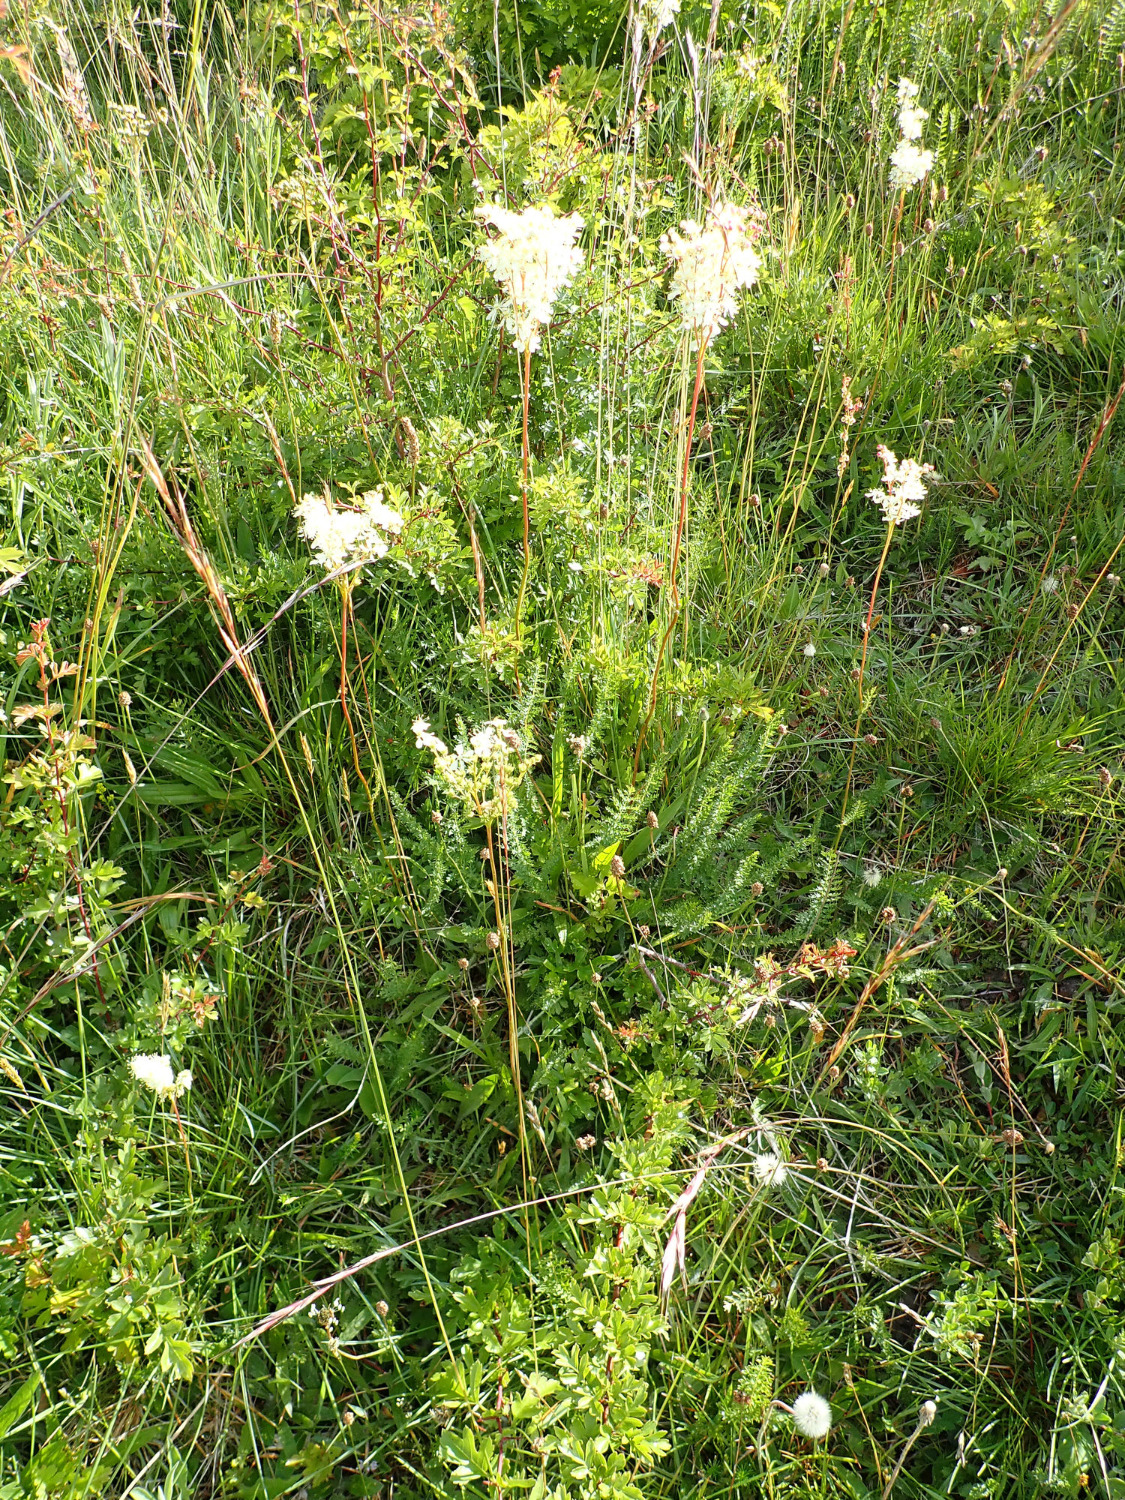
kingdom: Plantae
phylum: Tracheophyta
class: Magnoliopsida
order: Rosales
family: Rosaceae
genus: Filipendula
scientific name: Filipendula vulgaris
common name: Knoldet mjødurt
